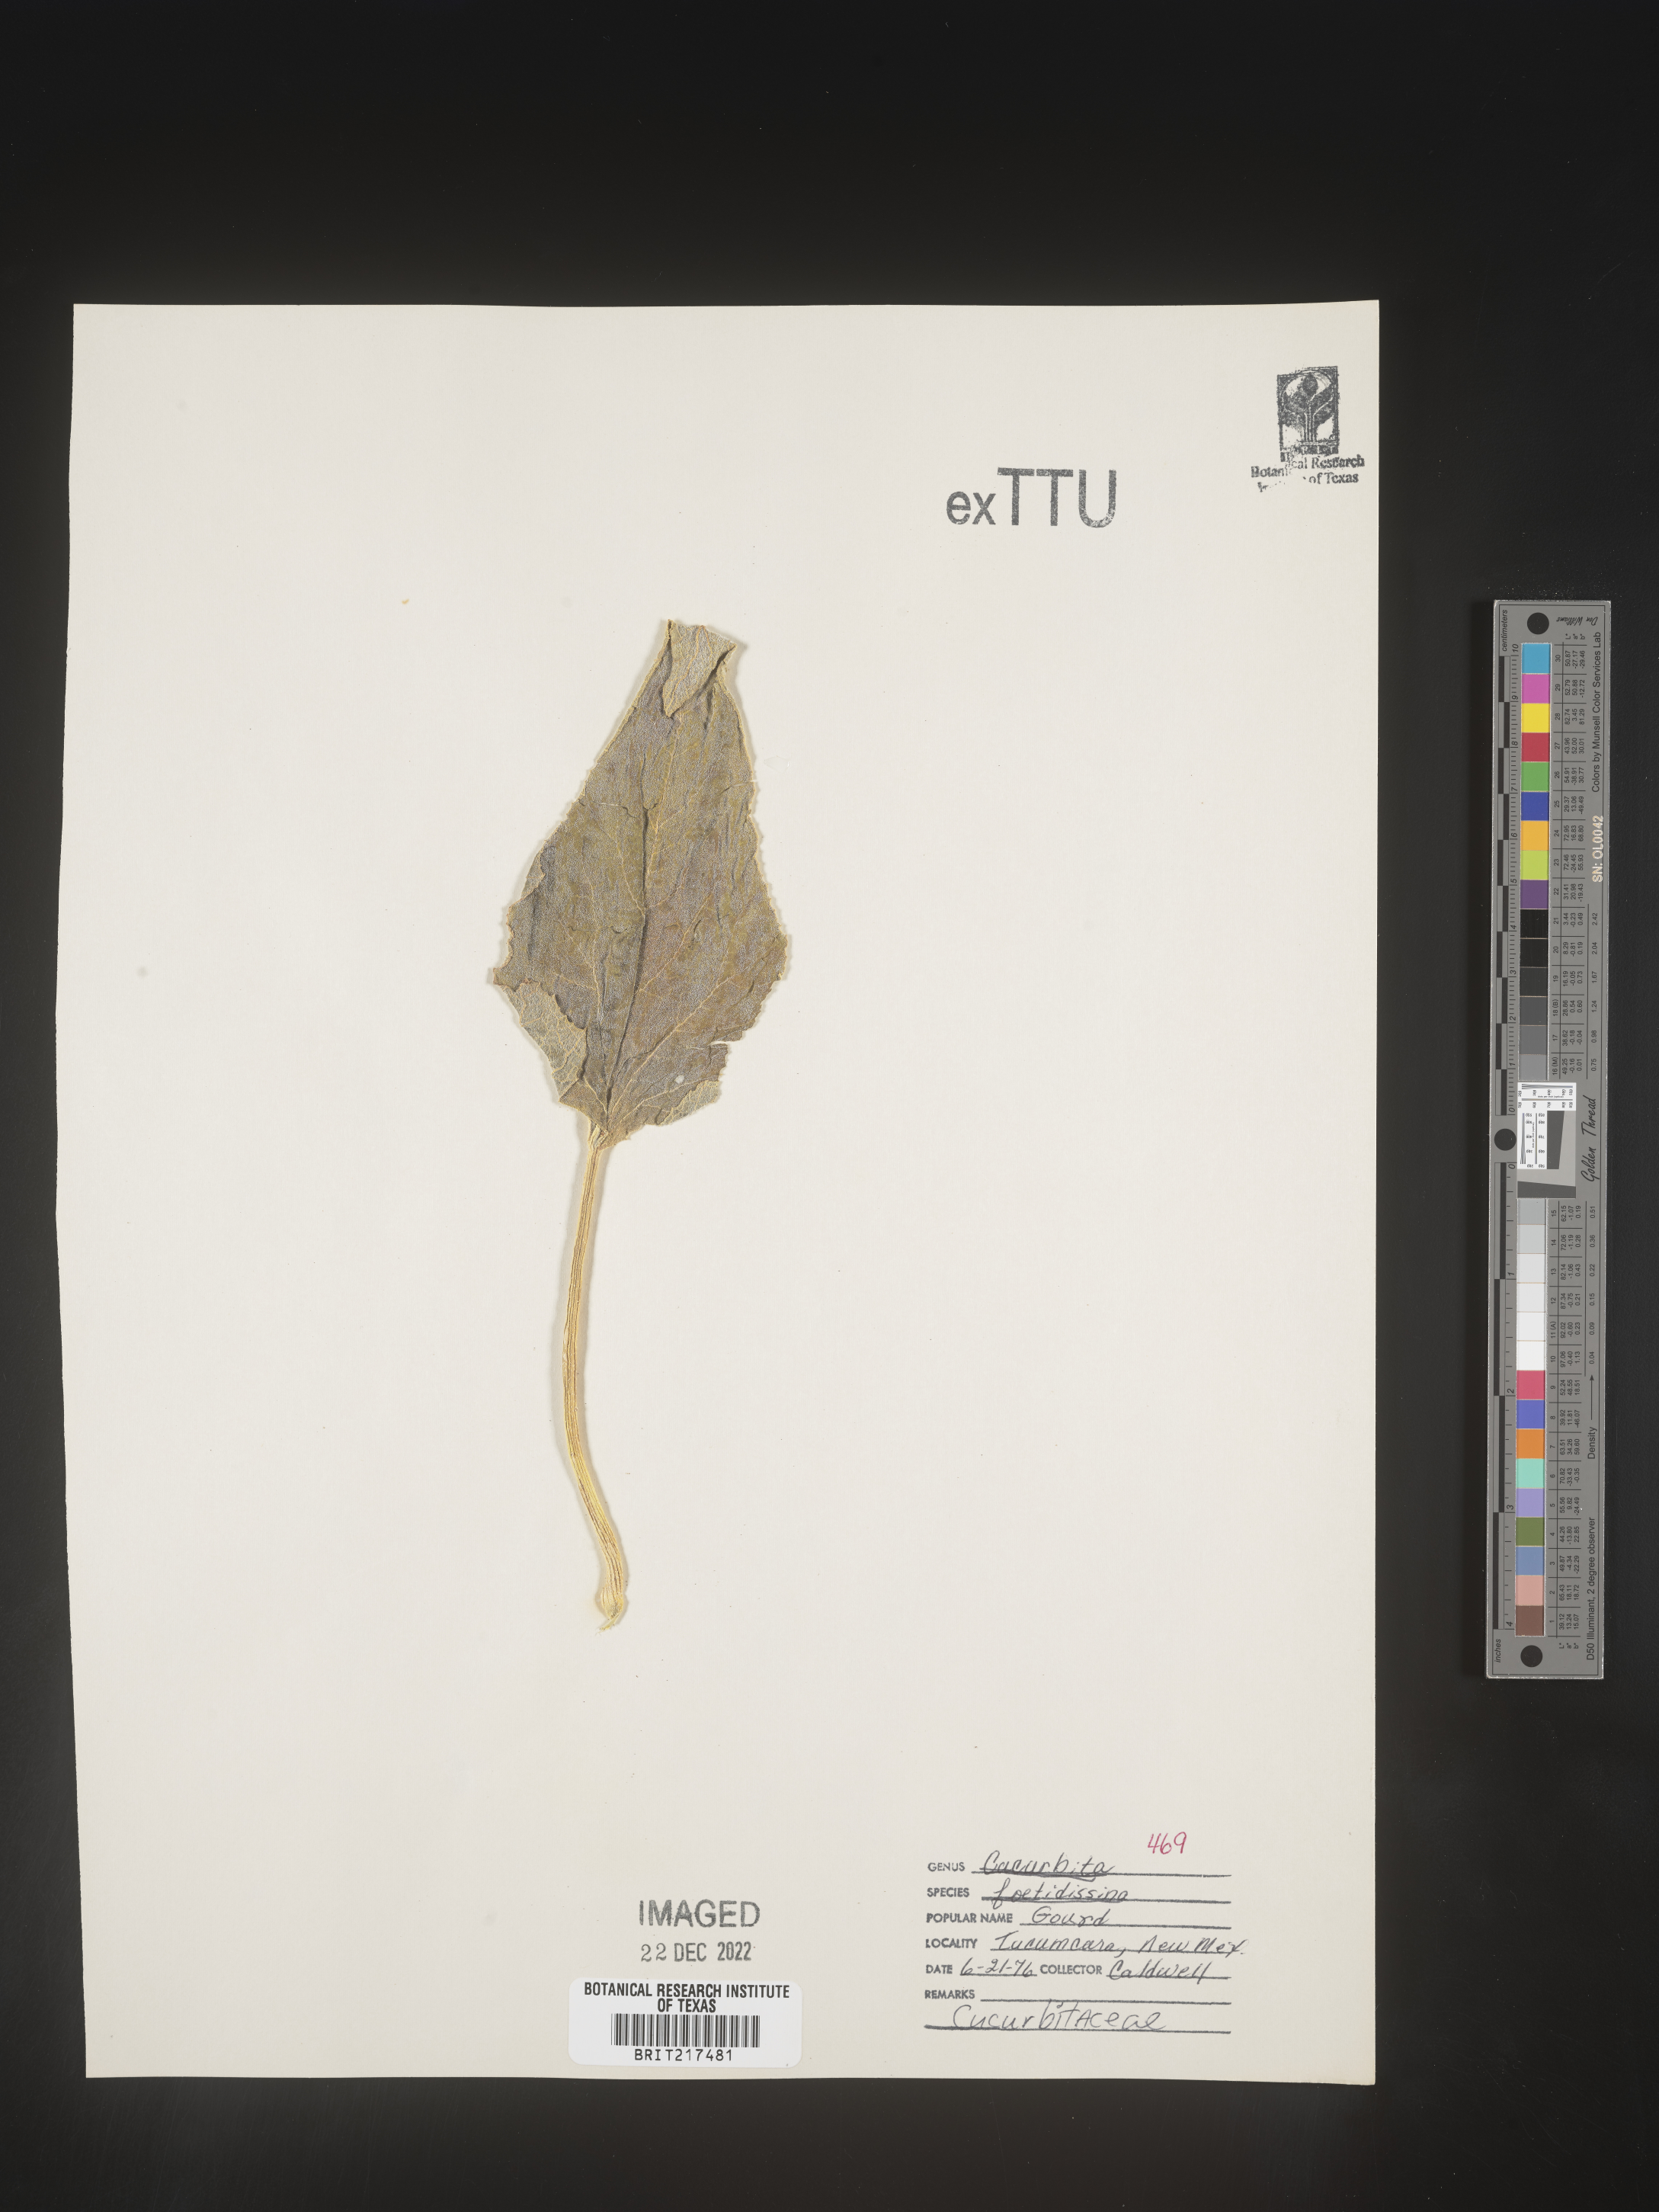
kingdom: Plantae
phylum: Tracheophyta
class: Magnoliopsida
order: Cucurbitales
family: Cucurbitaceae
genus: Cucurbita
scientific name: Cucurbita foetidissima
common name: Buffalo gourd
